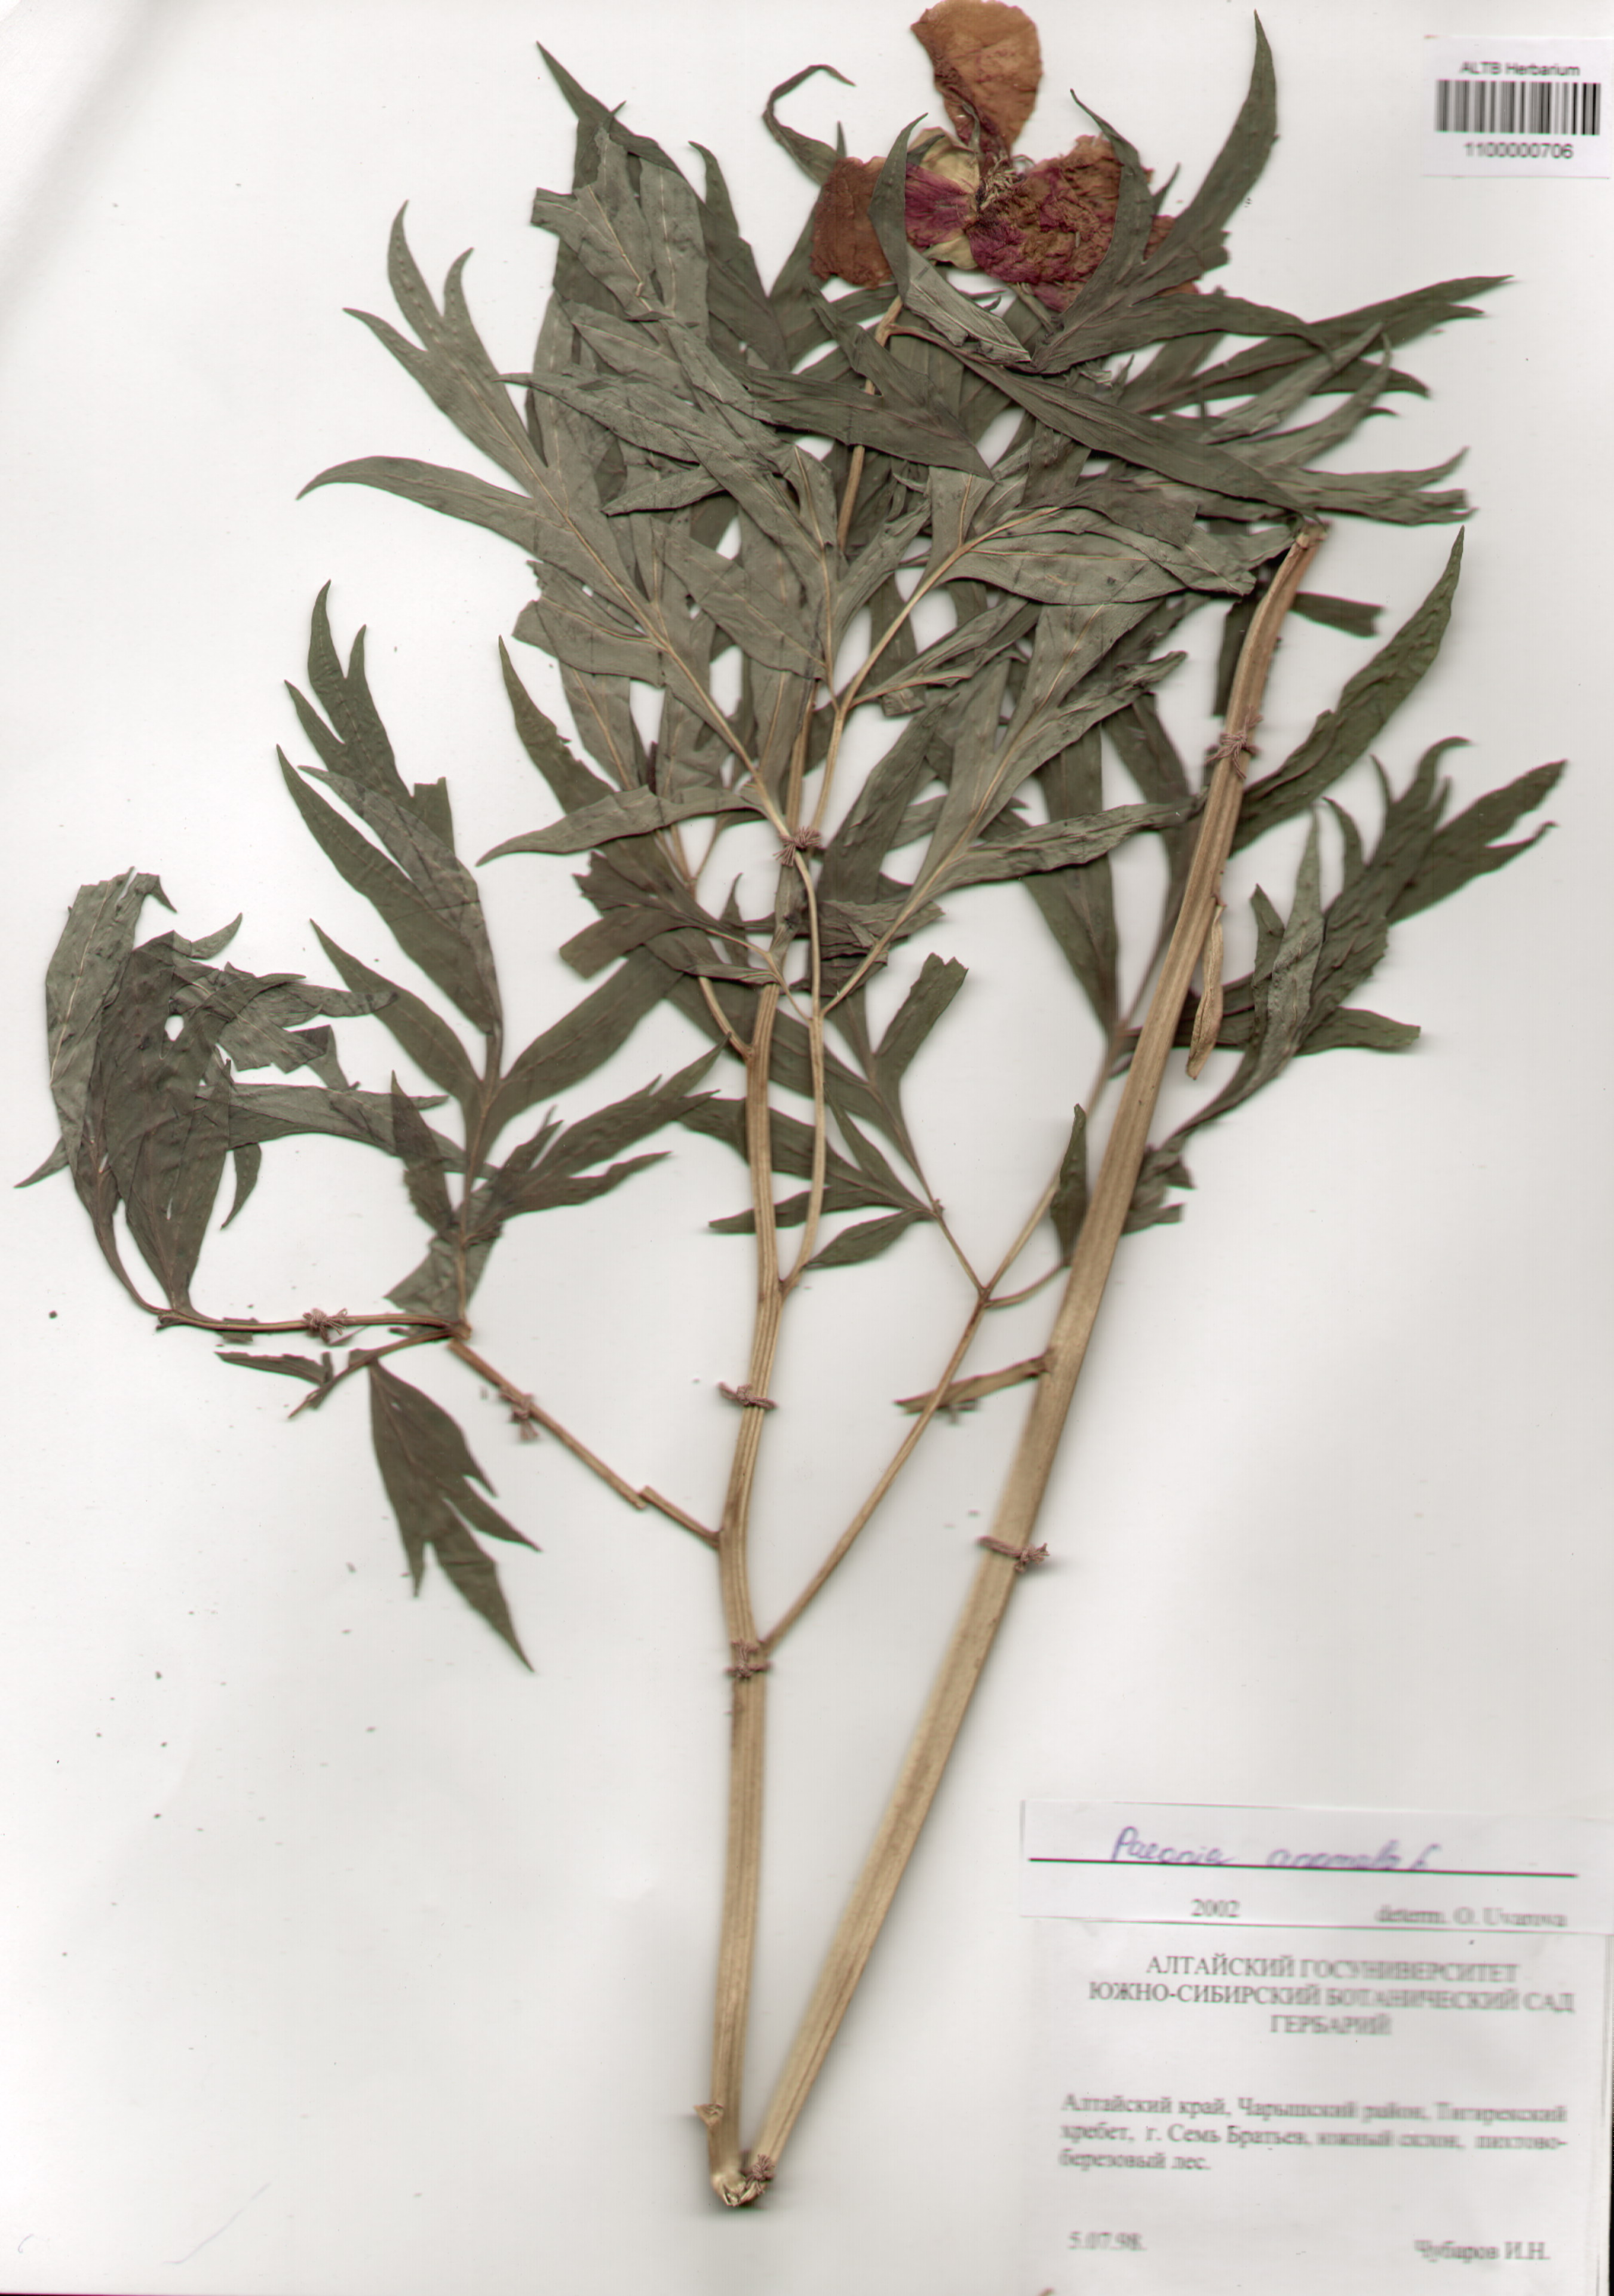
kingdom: Plantae
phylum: Tracheophyta
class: Magnoliopsida
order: Saxifragales
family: Paeoniaceae
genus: Paeonia
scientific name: Paeonia anomala
